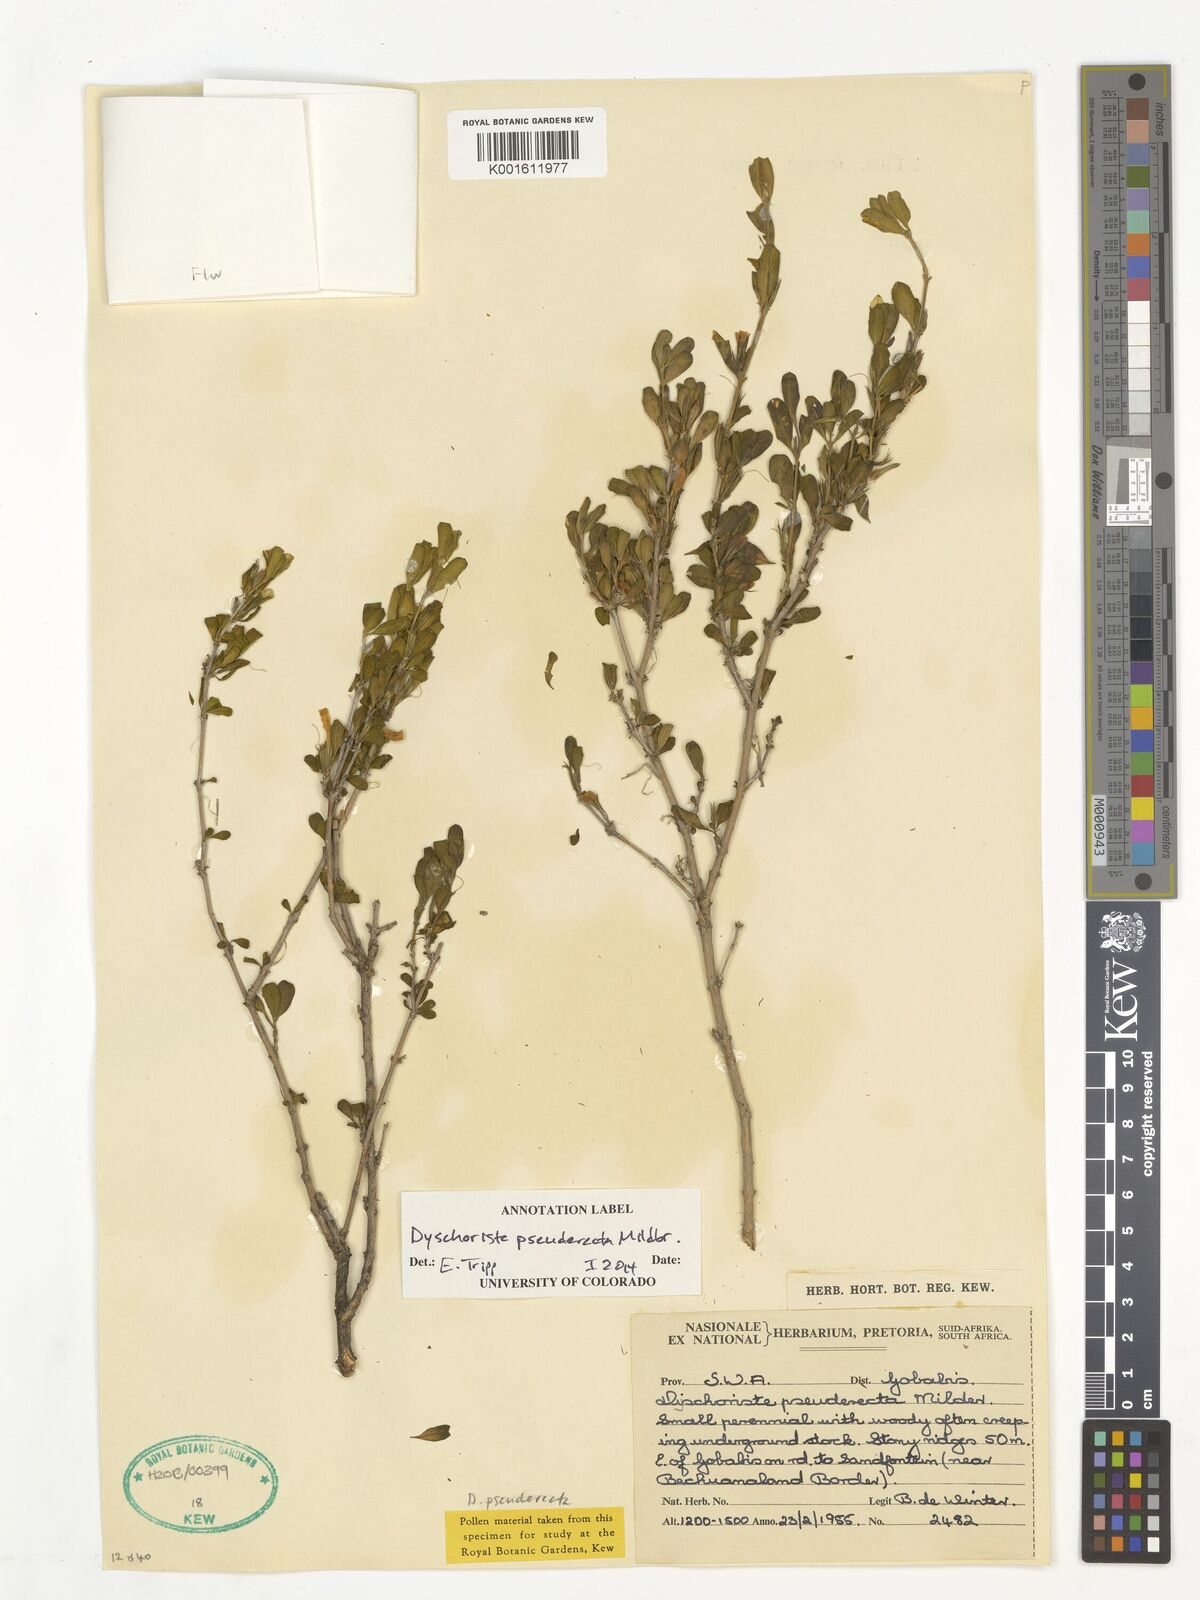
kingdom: Plantae
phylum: Tracheophyta
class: Magnoliopsida
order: Lamiales
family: Acanthaceae
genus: Dyschoriste
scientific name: Dyschoriste pseuderecta
